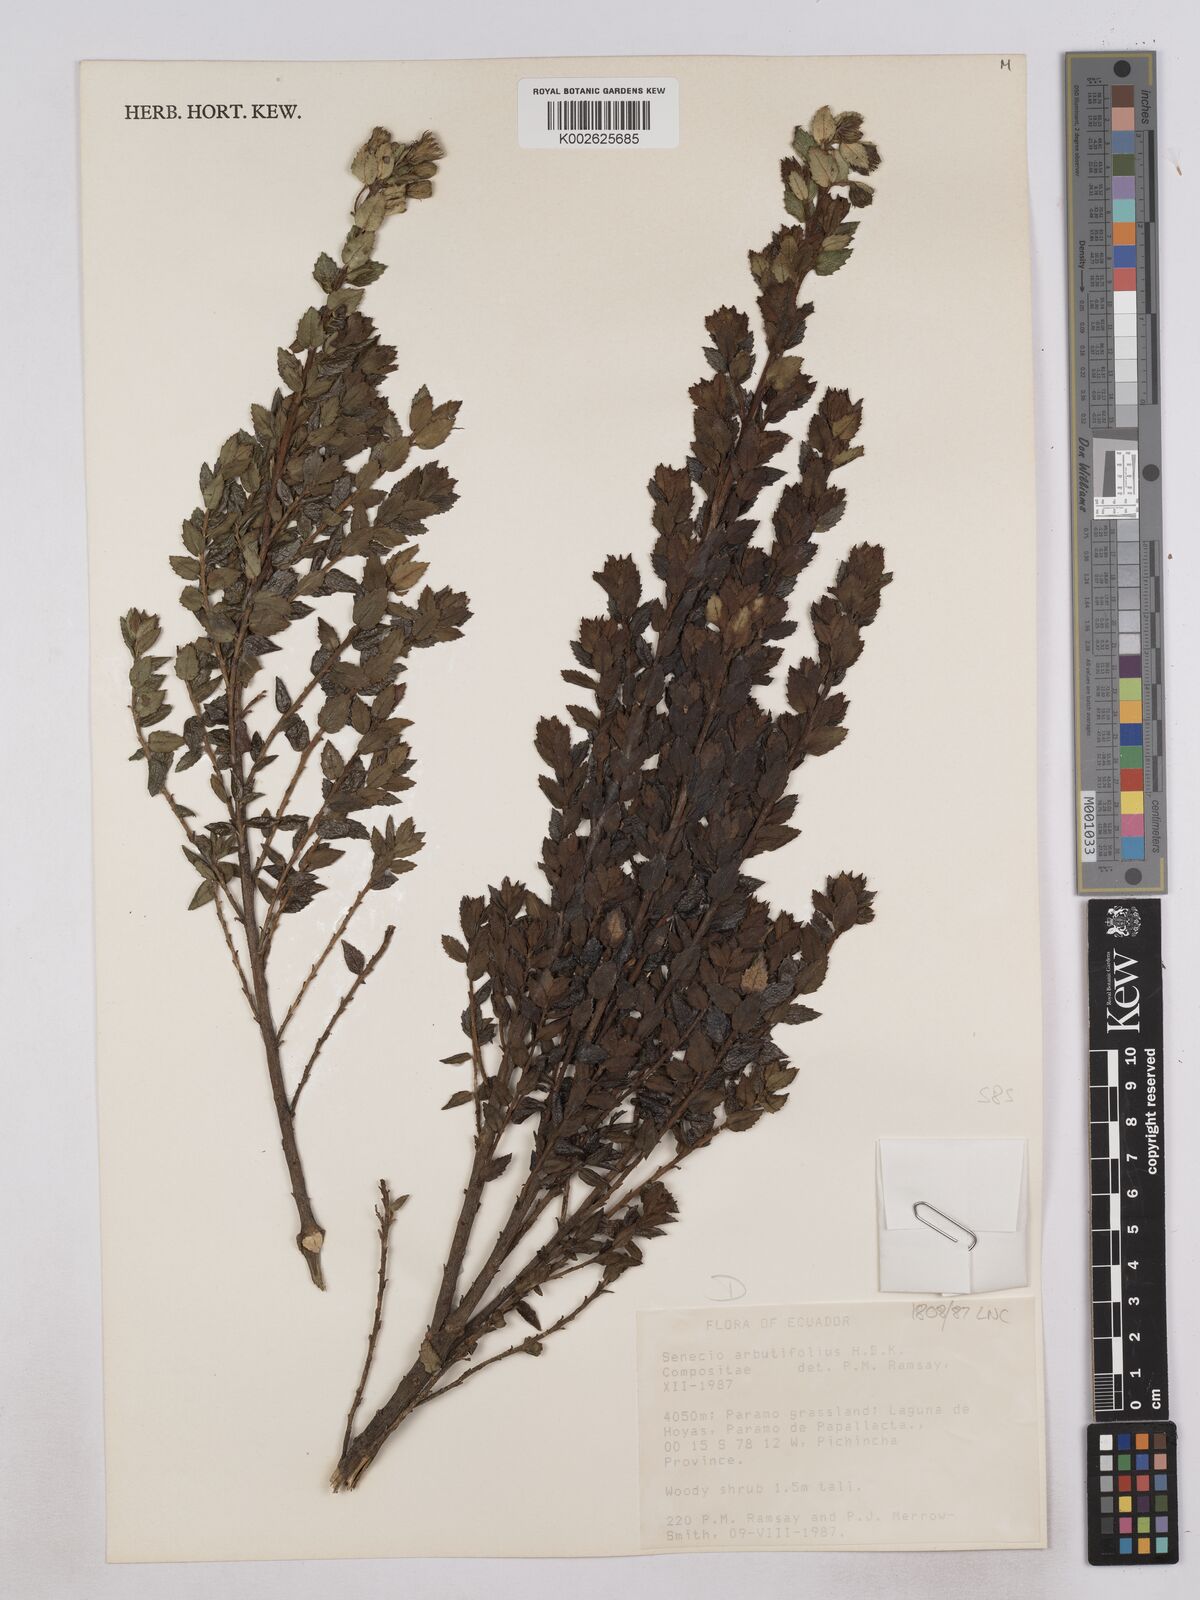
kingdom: Plantae
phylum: Tracheophyta
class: Magnoliopsida
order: Asterales
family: Asteraceae
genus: Monticalia
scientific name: Monticalia arbutifolia
